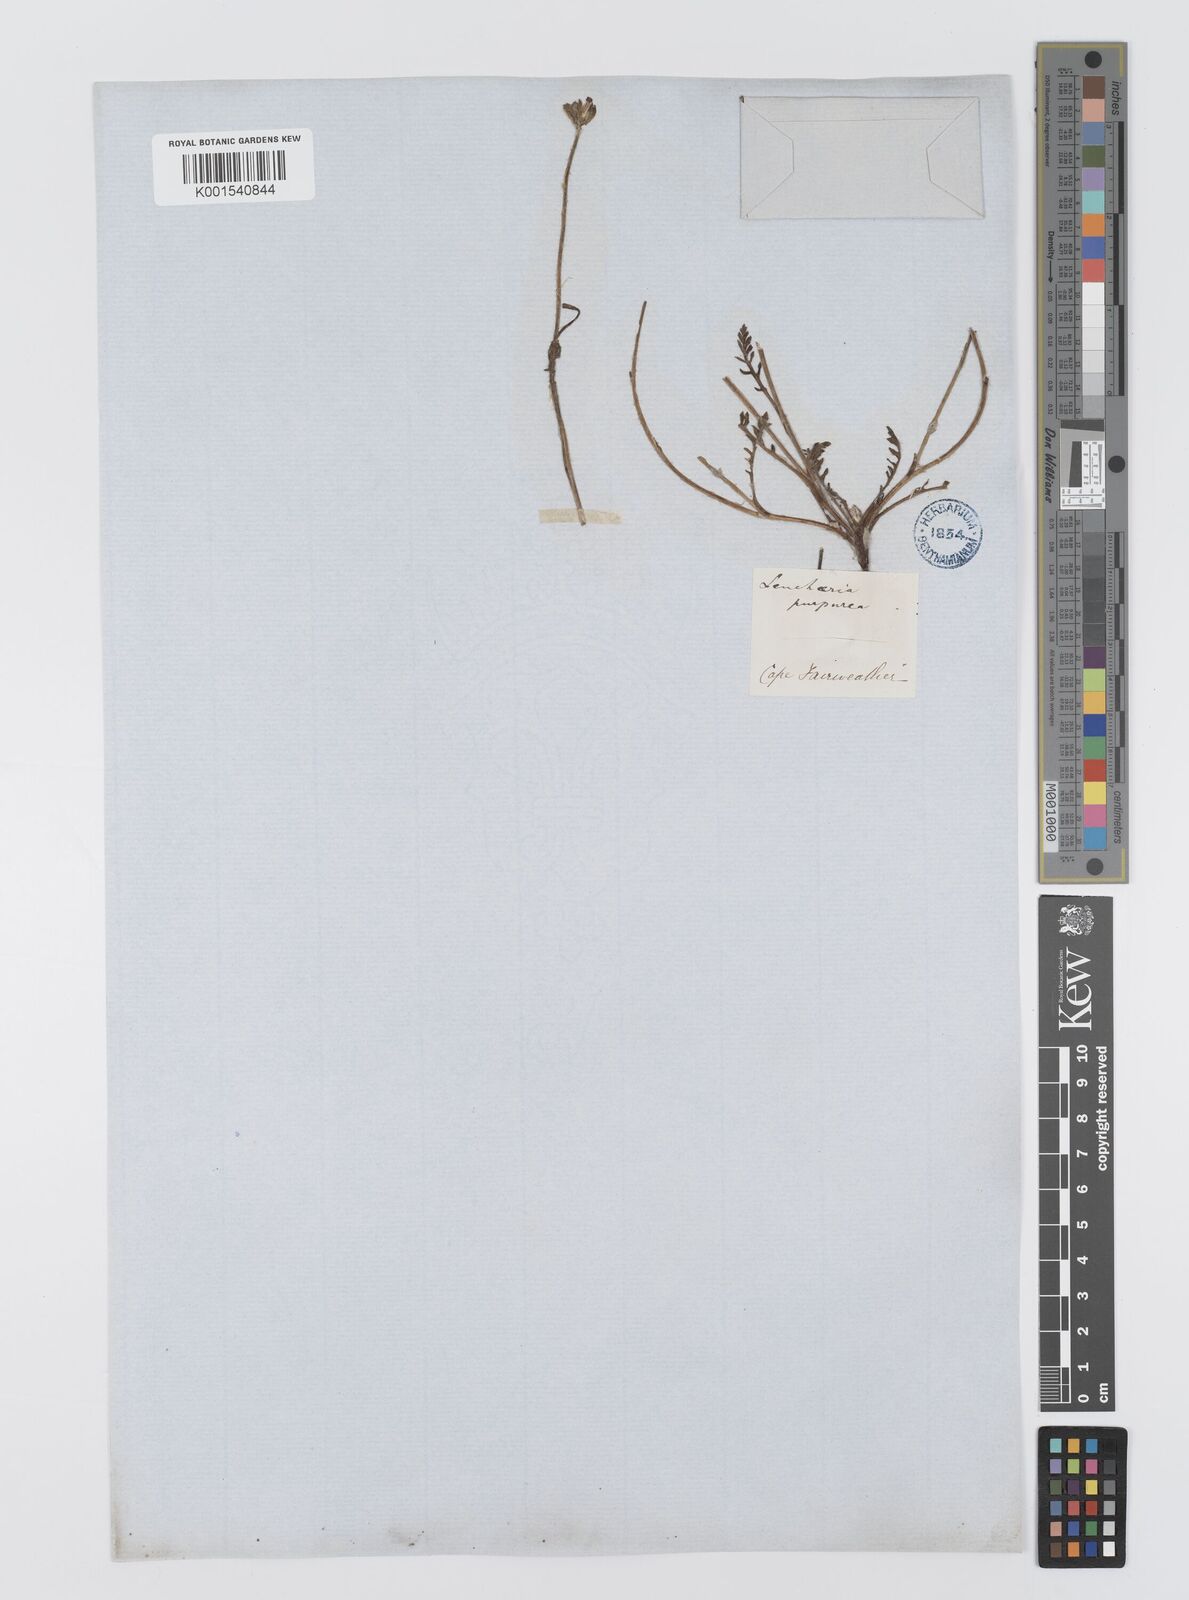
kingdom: Plantae
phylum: Tracheophyta
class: Magnoliopsida
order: Asterales
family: Asteraceae
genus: Leucheria
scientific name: Leucheria purpurea
